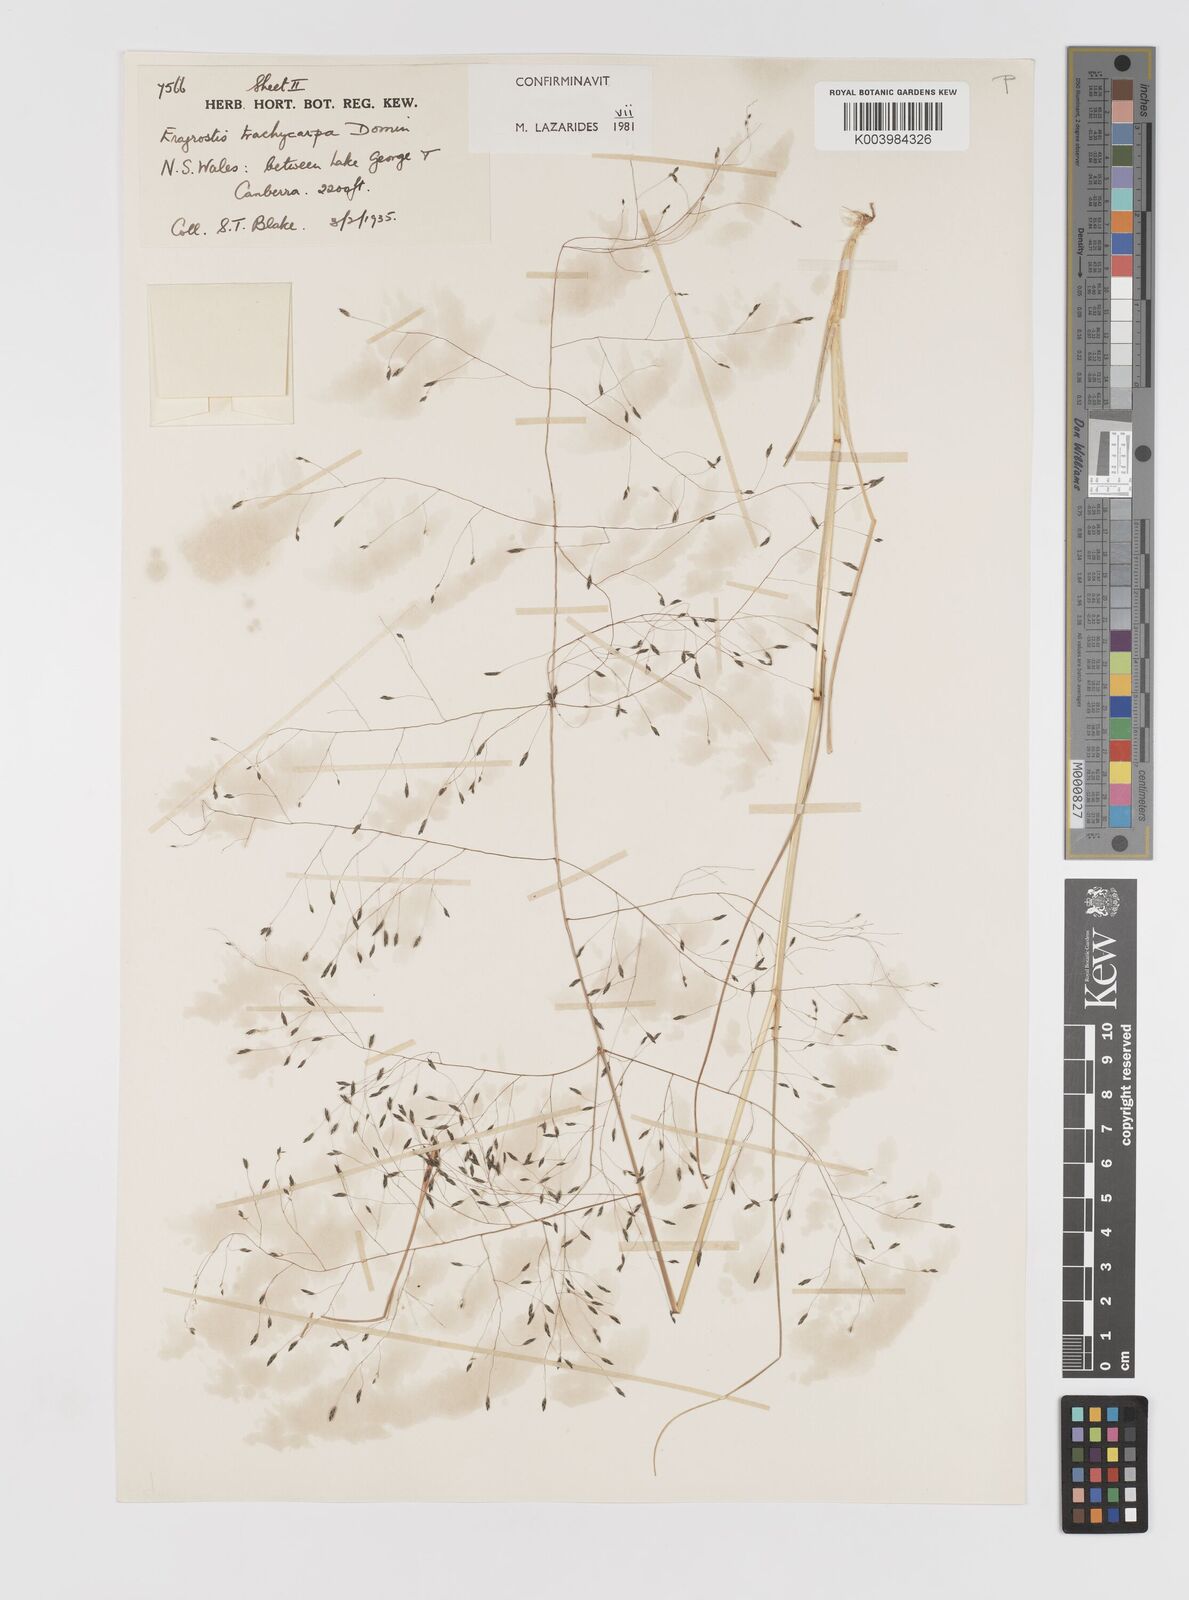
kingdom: Plantae
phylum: Tracheophyta
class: Liliopsida
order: Poales
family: Poaceae
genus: Eragrostis
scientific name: Eragrostis trachycarpa
